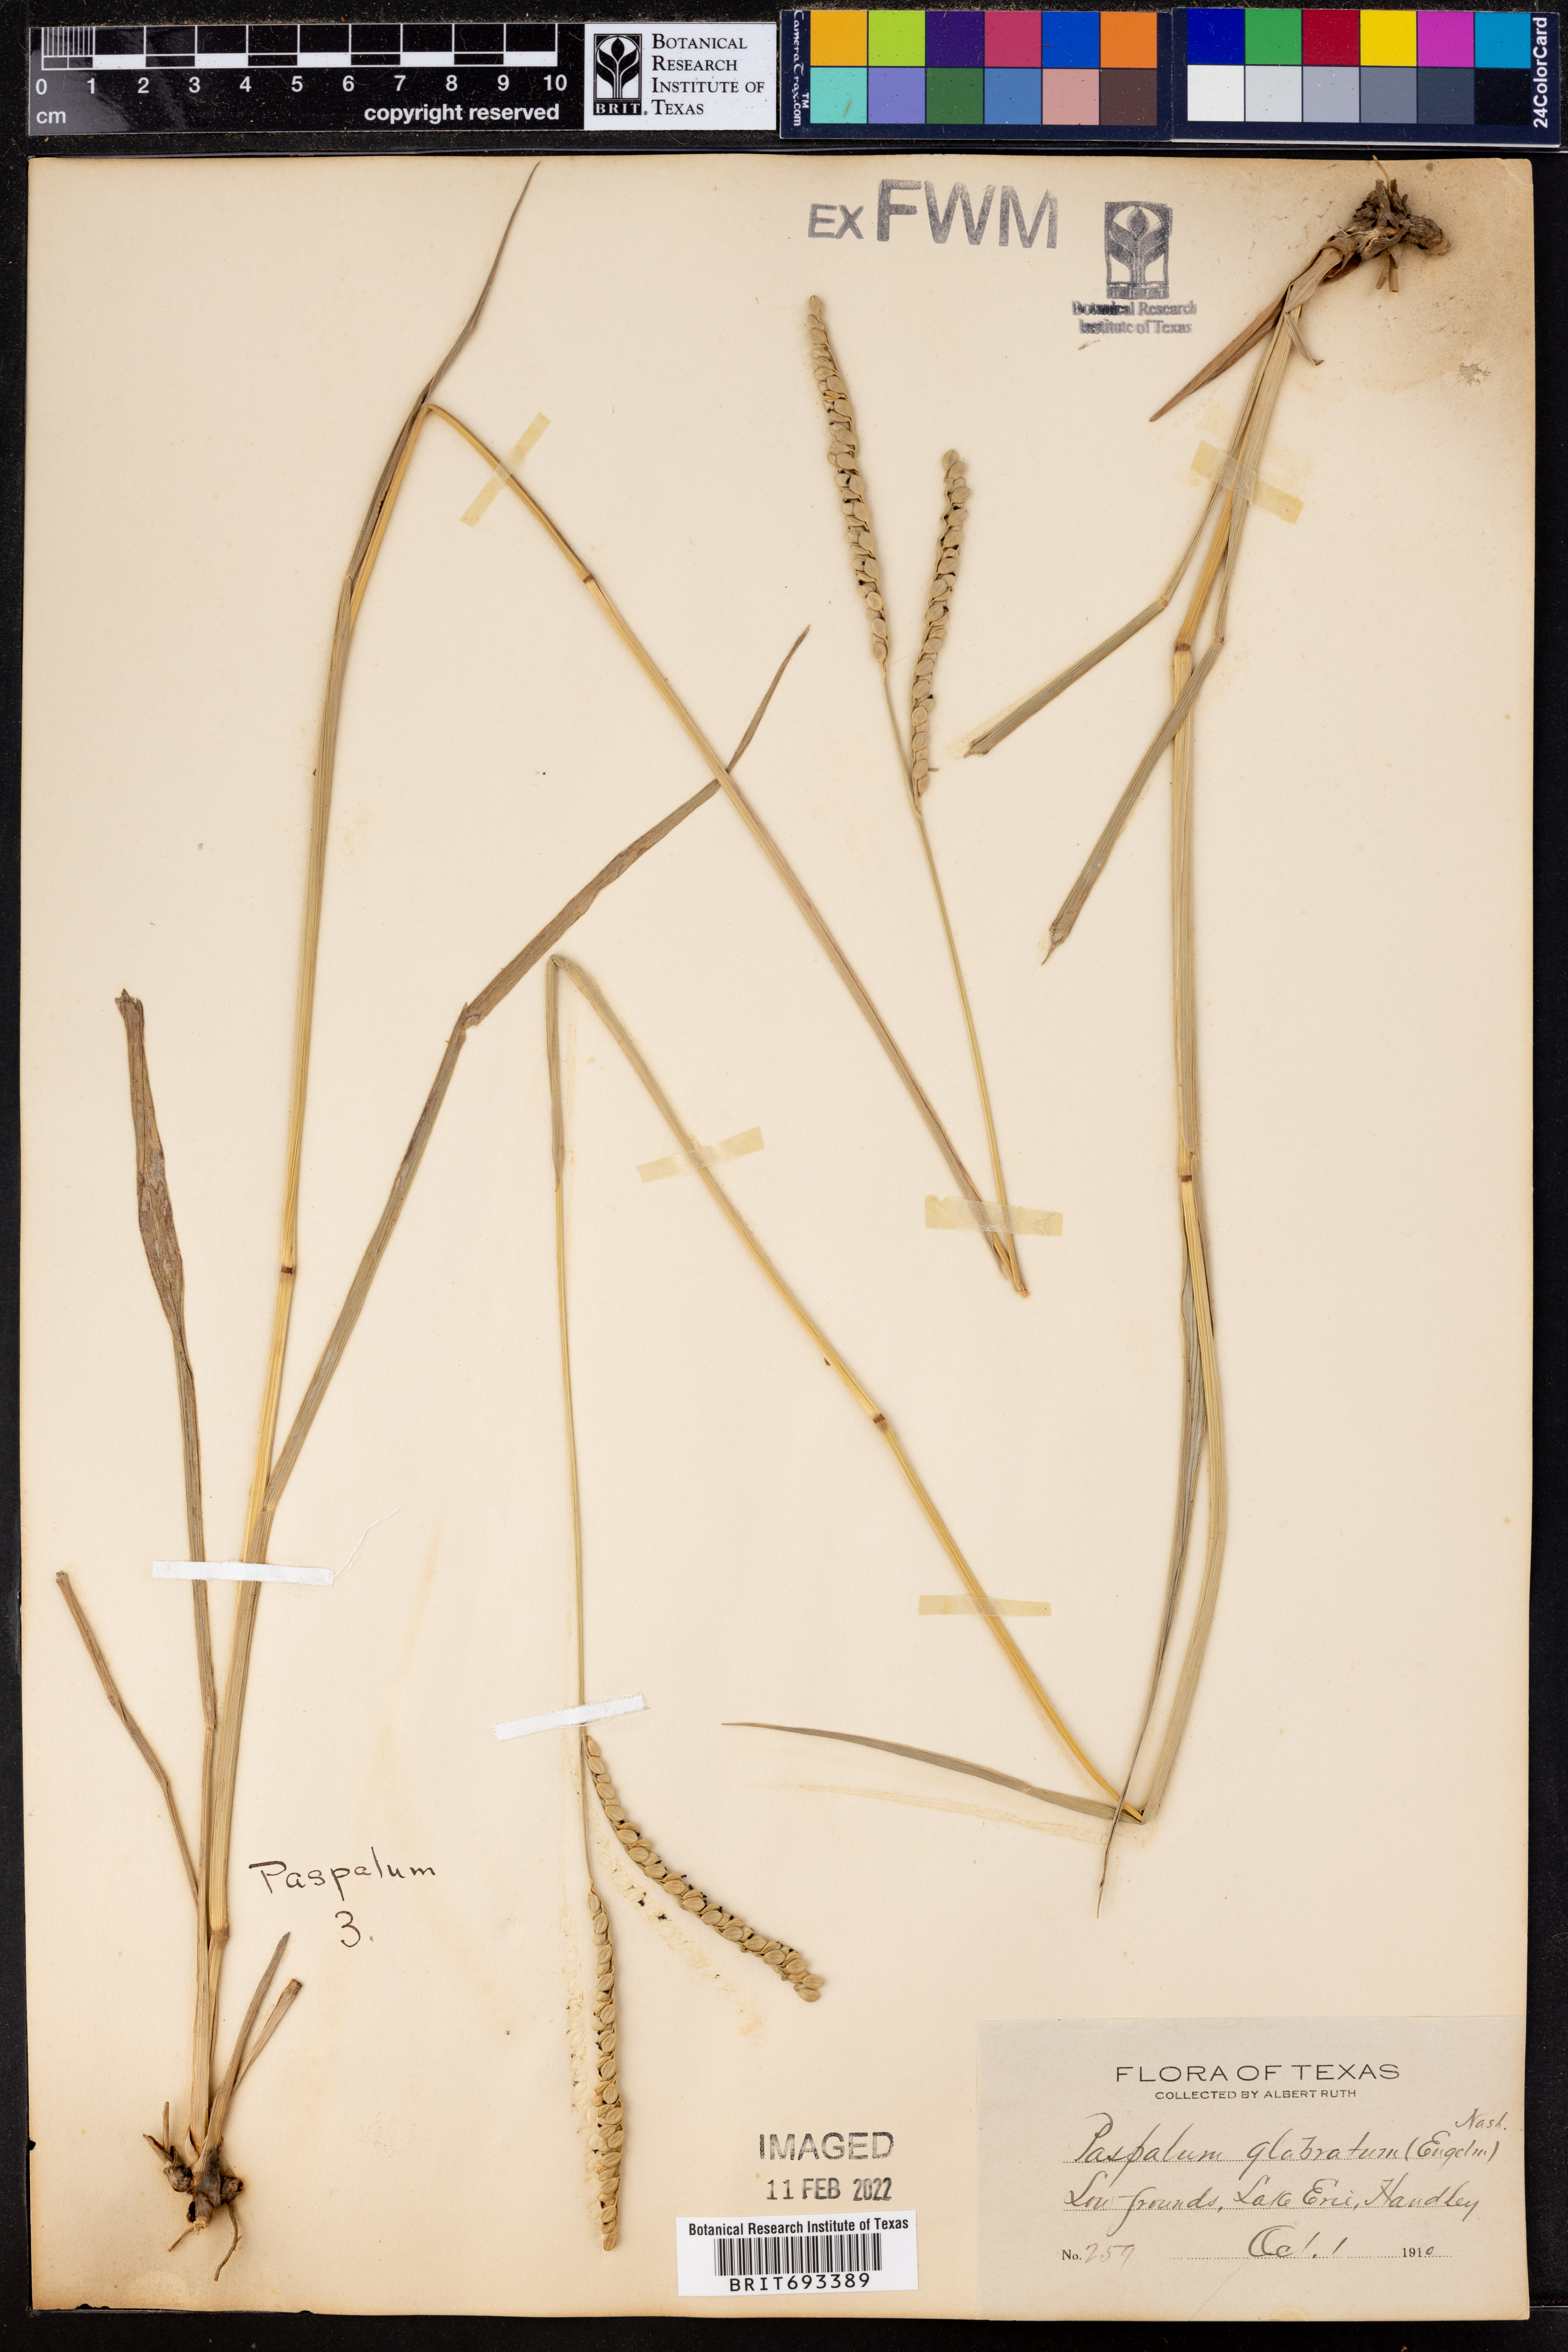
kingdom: Plantae
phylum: Tracheophyta
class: Liliopsida
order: Poales
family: Poaceae
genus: Paspalum
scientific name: Paspalum floridanum
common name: Florida paspalum
